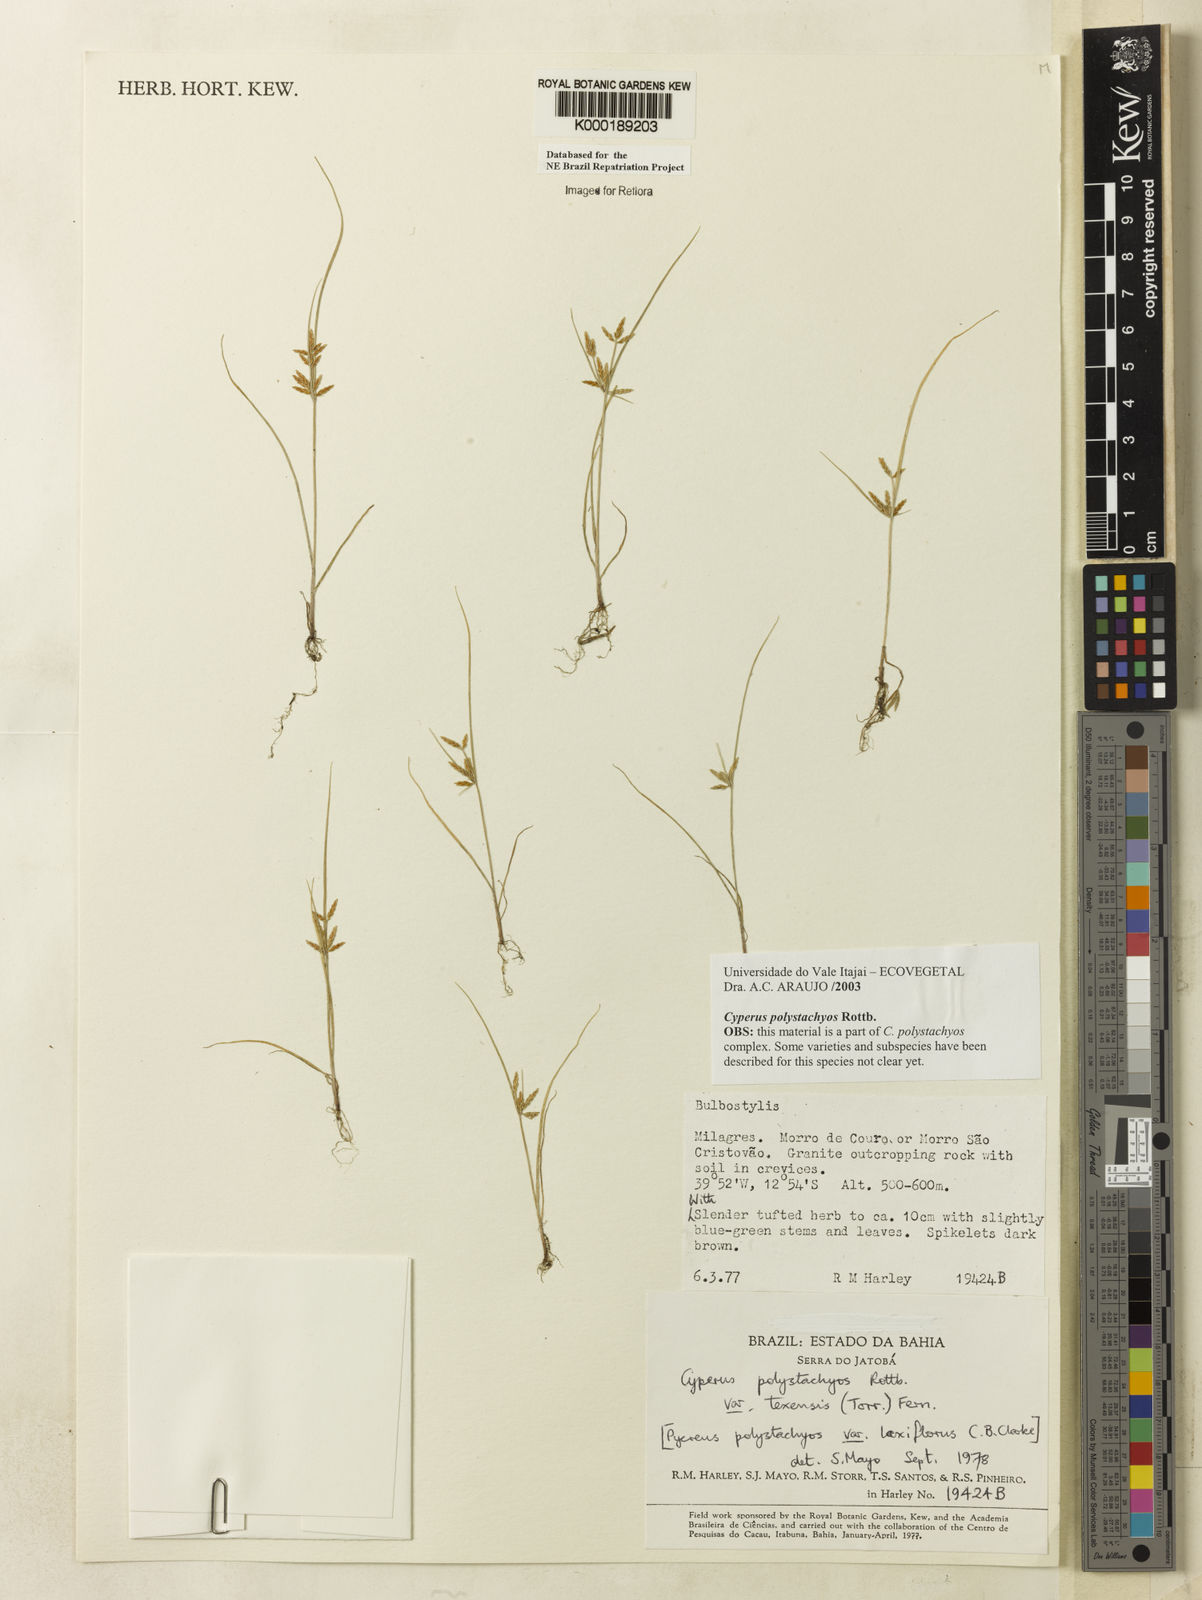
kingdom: Plantae
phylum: Tracheophyta
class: Liliopsida
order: Poales
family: Cyperaceae
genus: Cyperus
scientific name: Cyperus polystachyos
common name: Bunchy flat sedge
